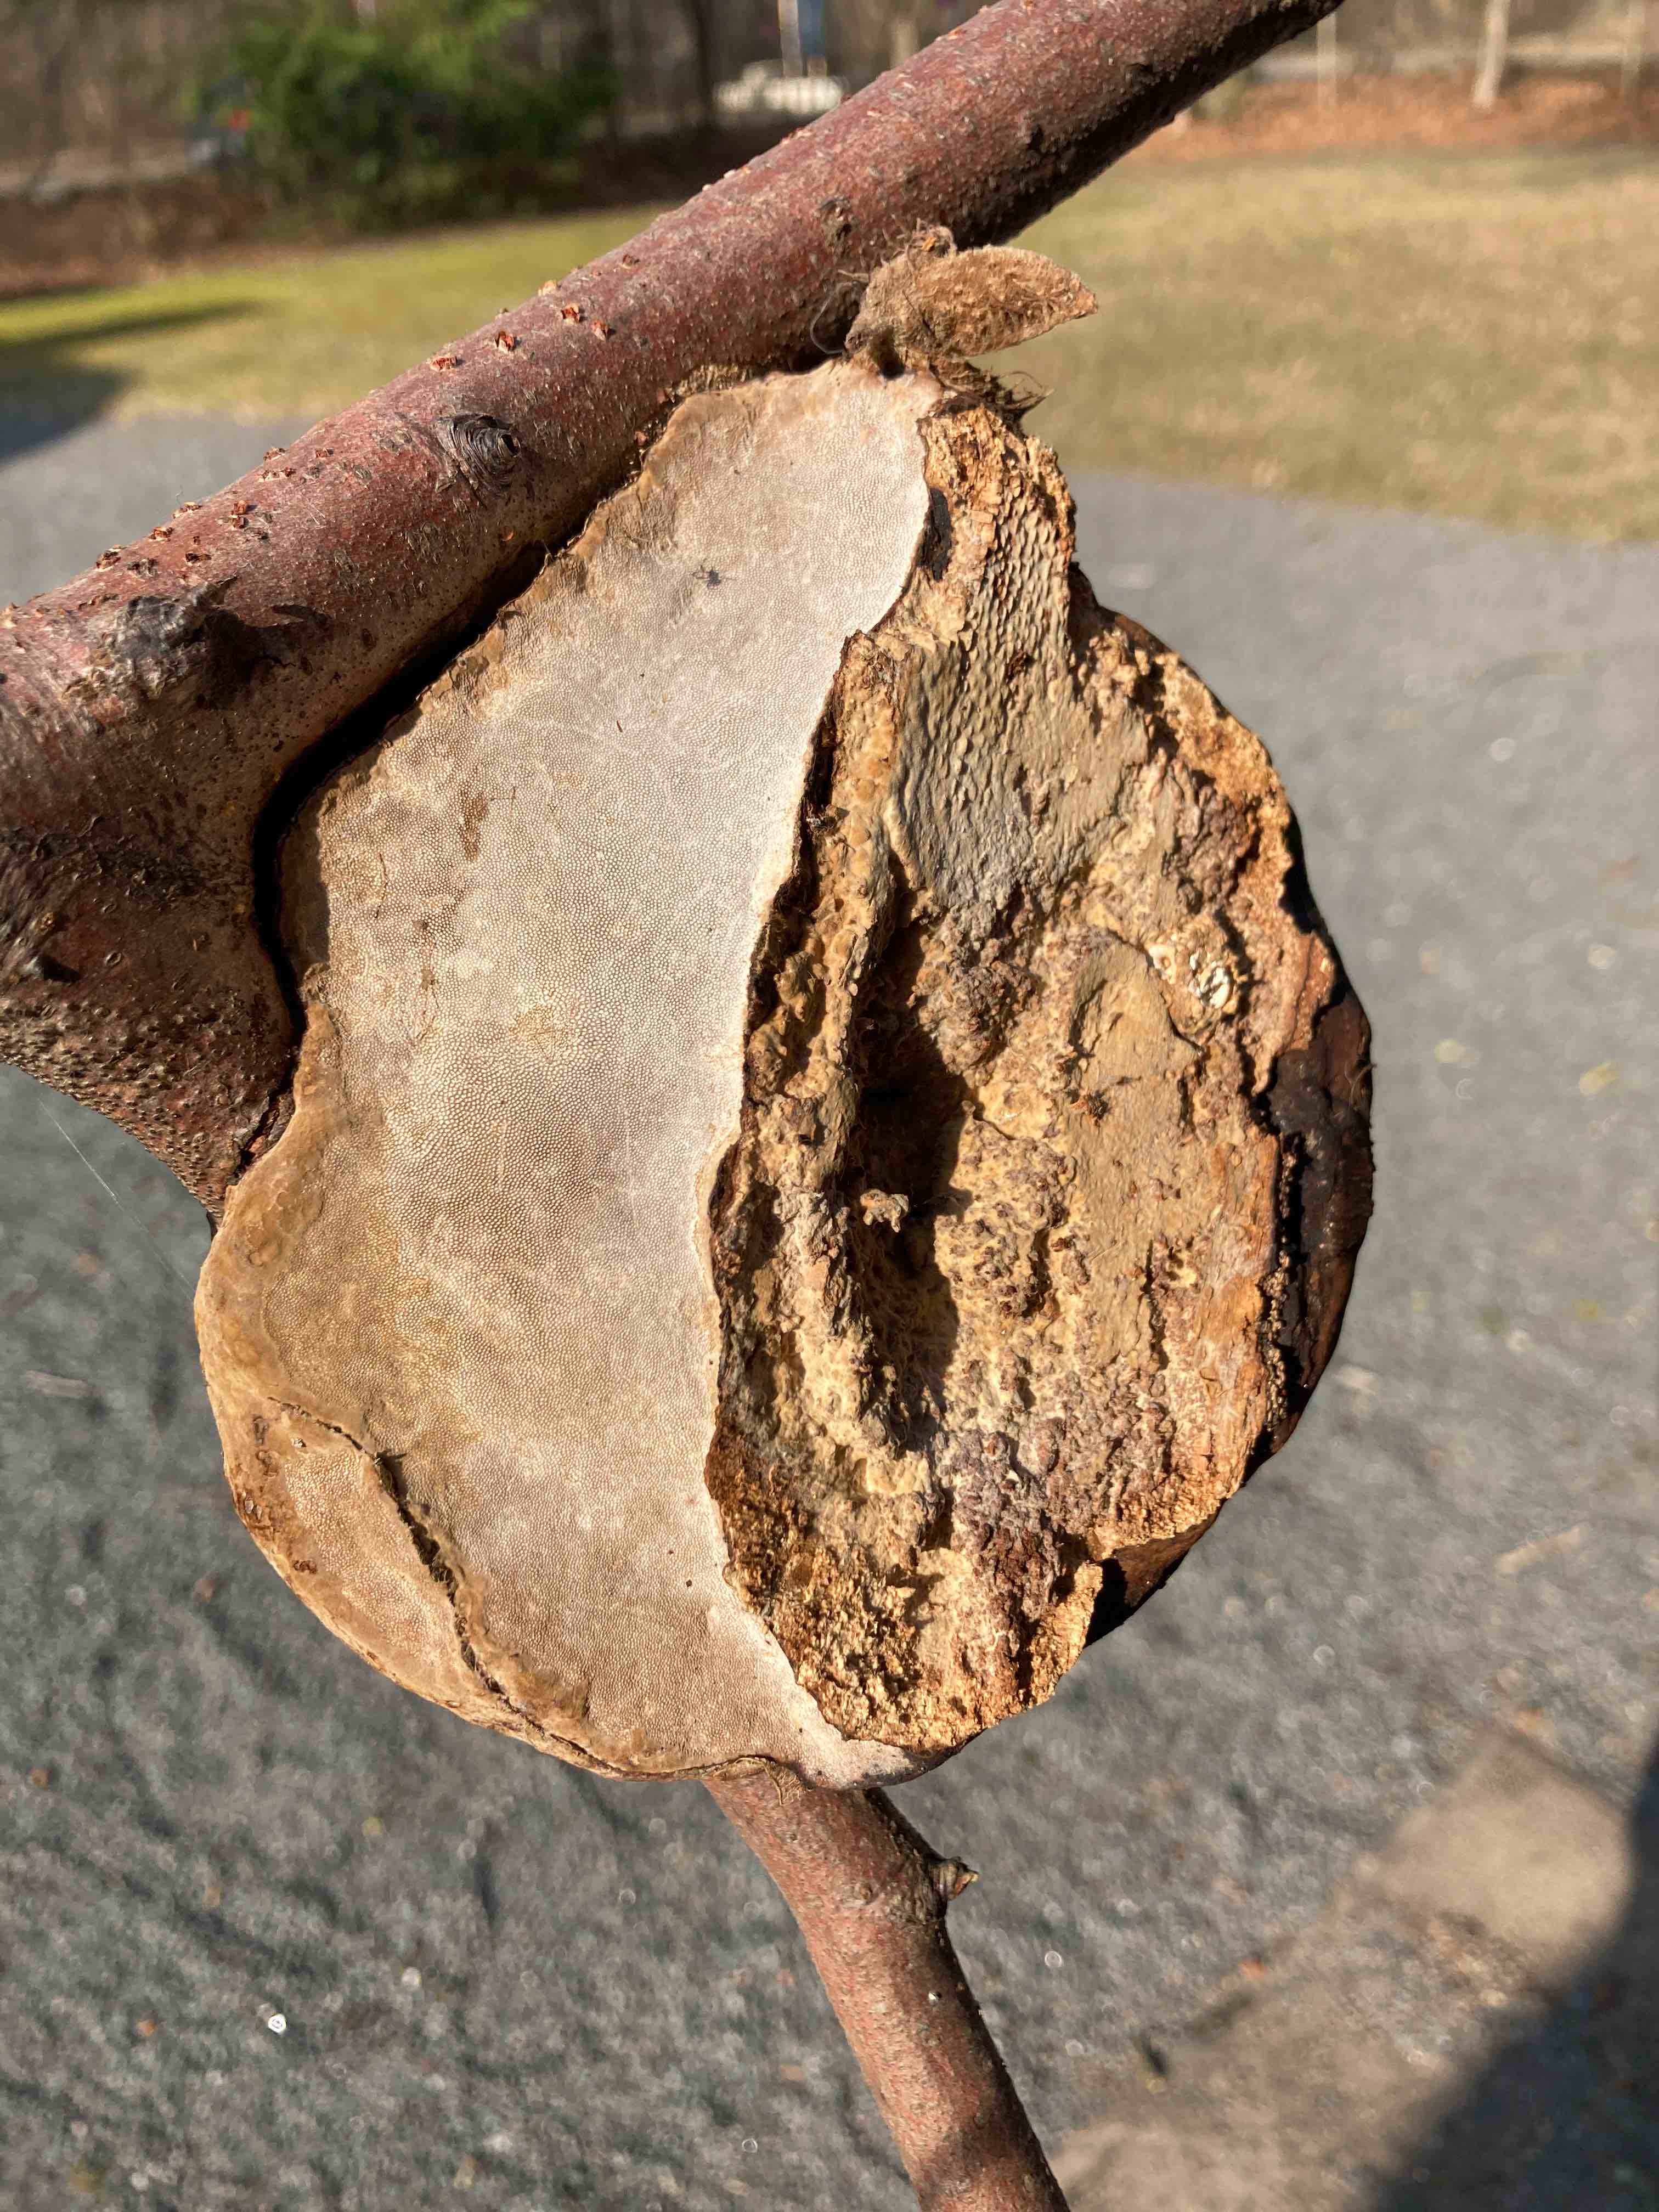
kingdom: Fungi
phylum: Basidiomycota
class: Agaricomycetes
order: Polyporales
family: Polyporaceae
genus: Fomes
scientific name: Fomes fomentarius
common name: tøndersvamp
